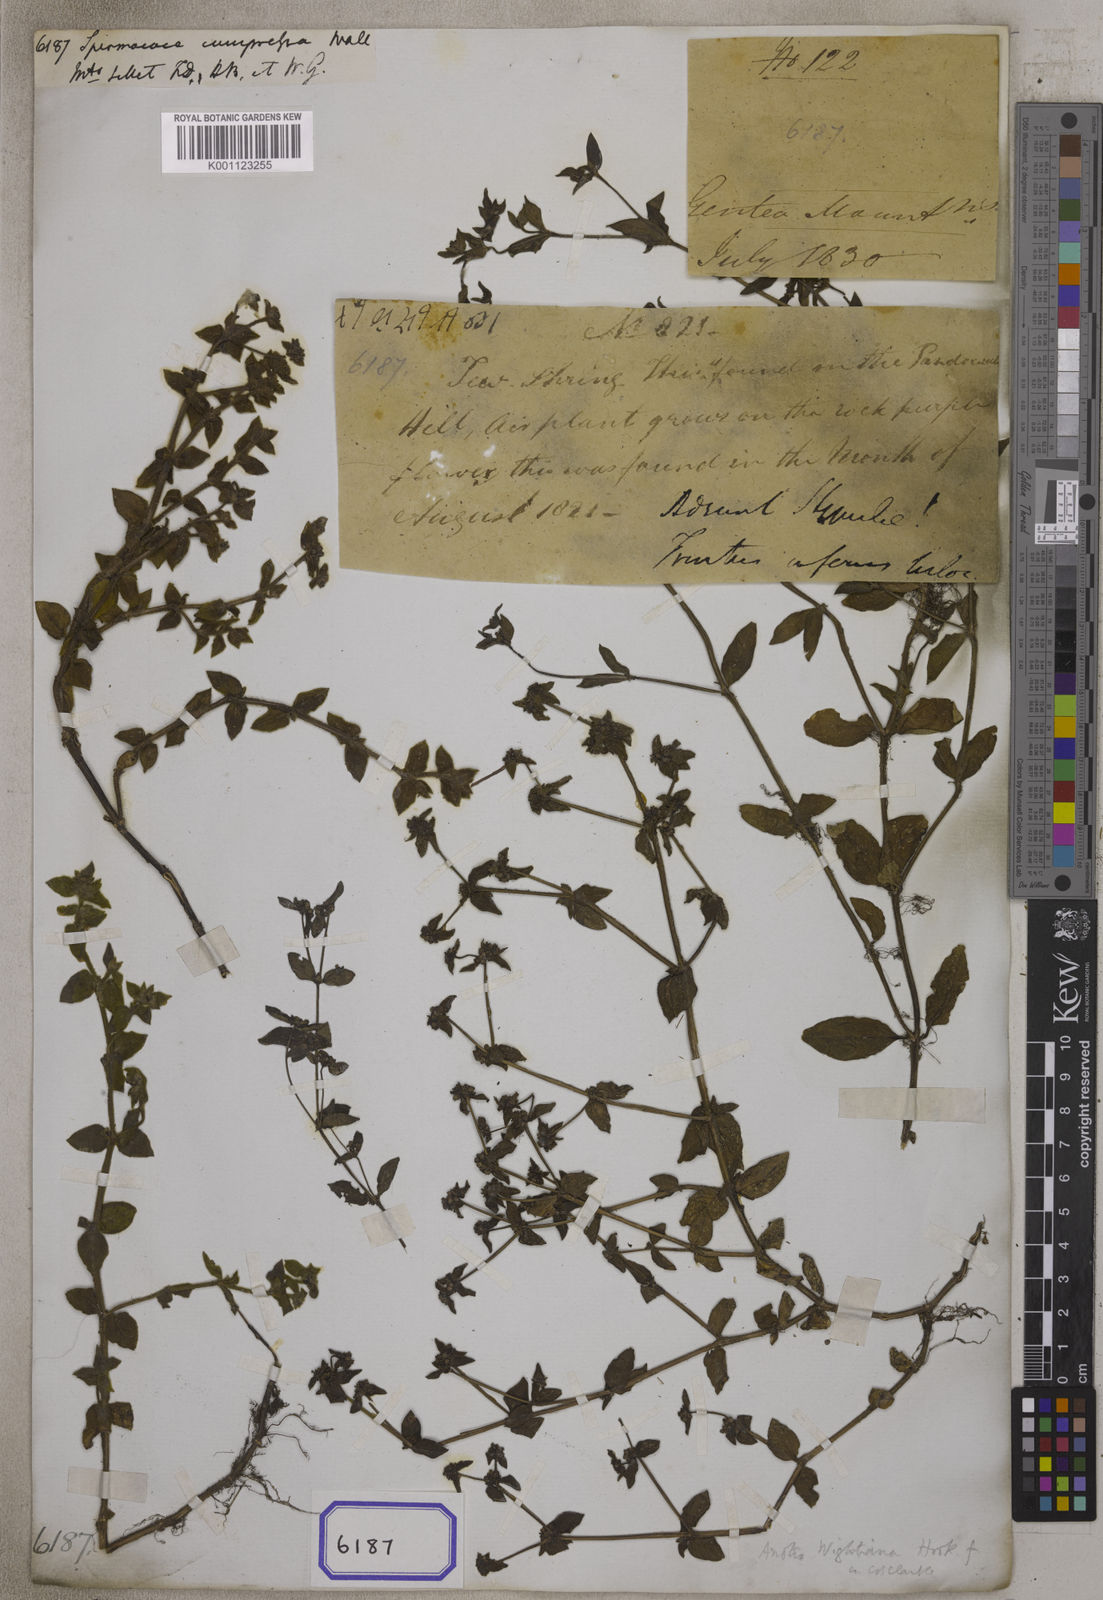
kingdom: Plantae
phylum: Tracheophyta
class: Magnoliopsida
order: Gentianales
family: Rubiaceae
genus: Spermacoce
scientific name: Spermacoce
